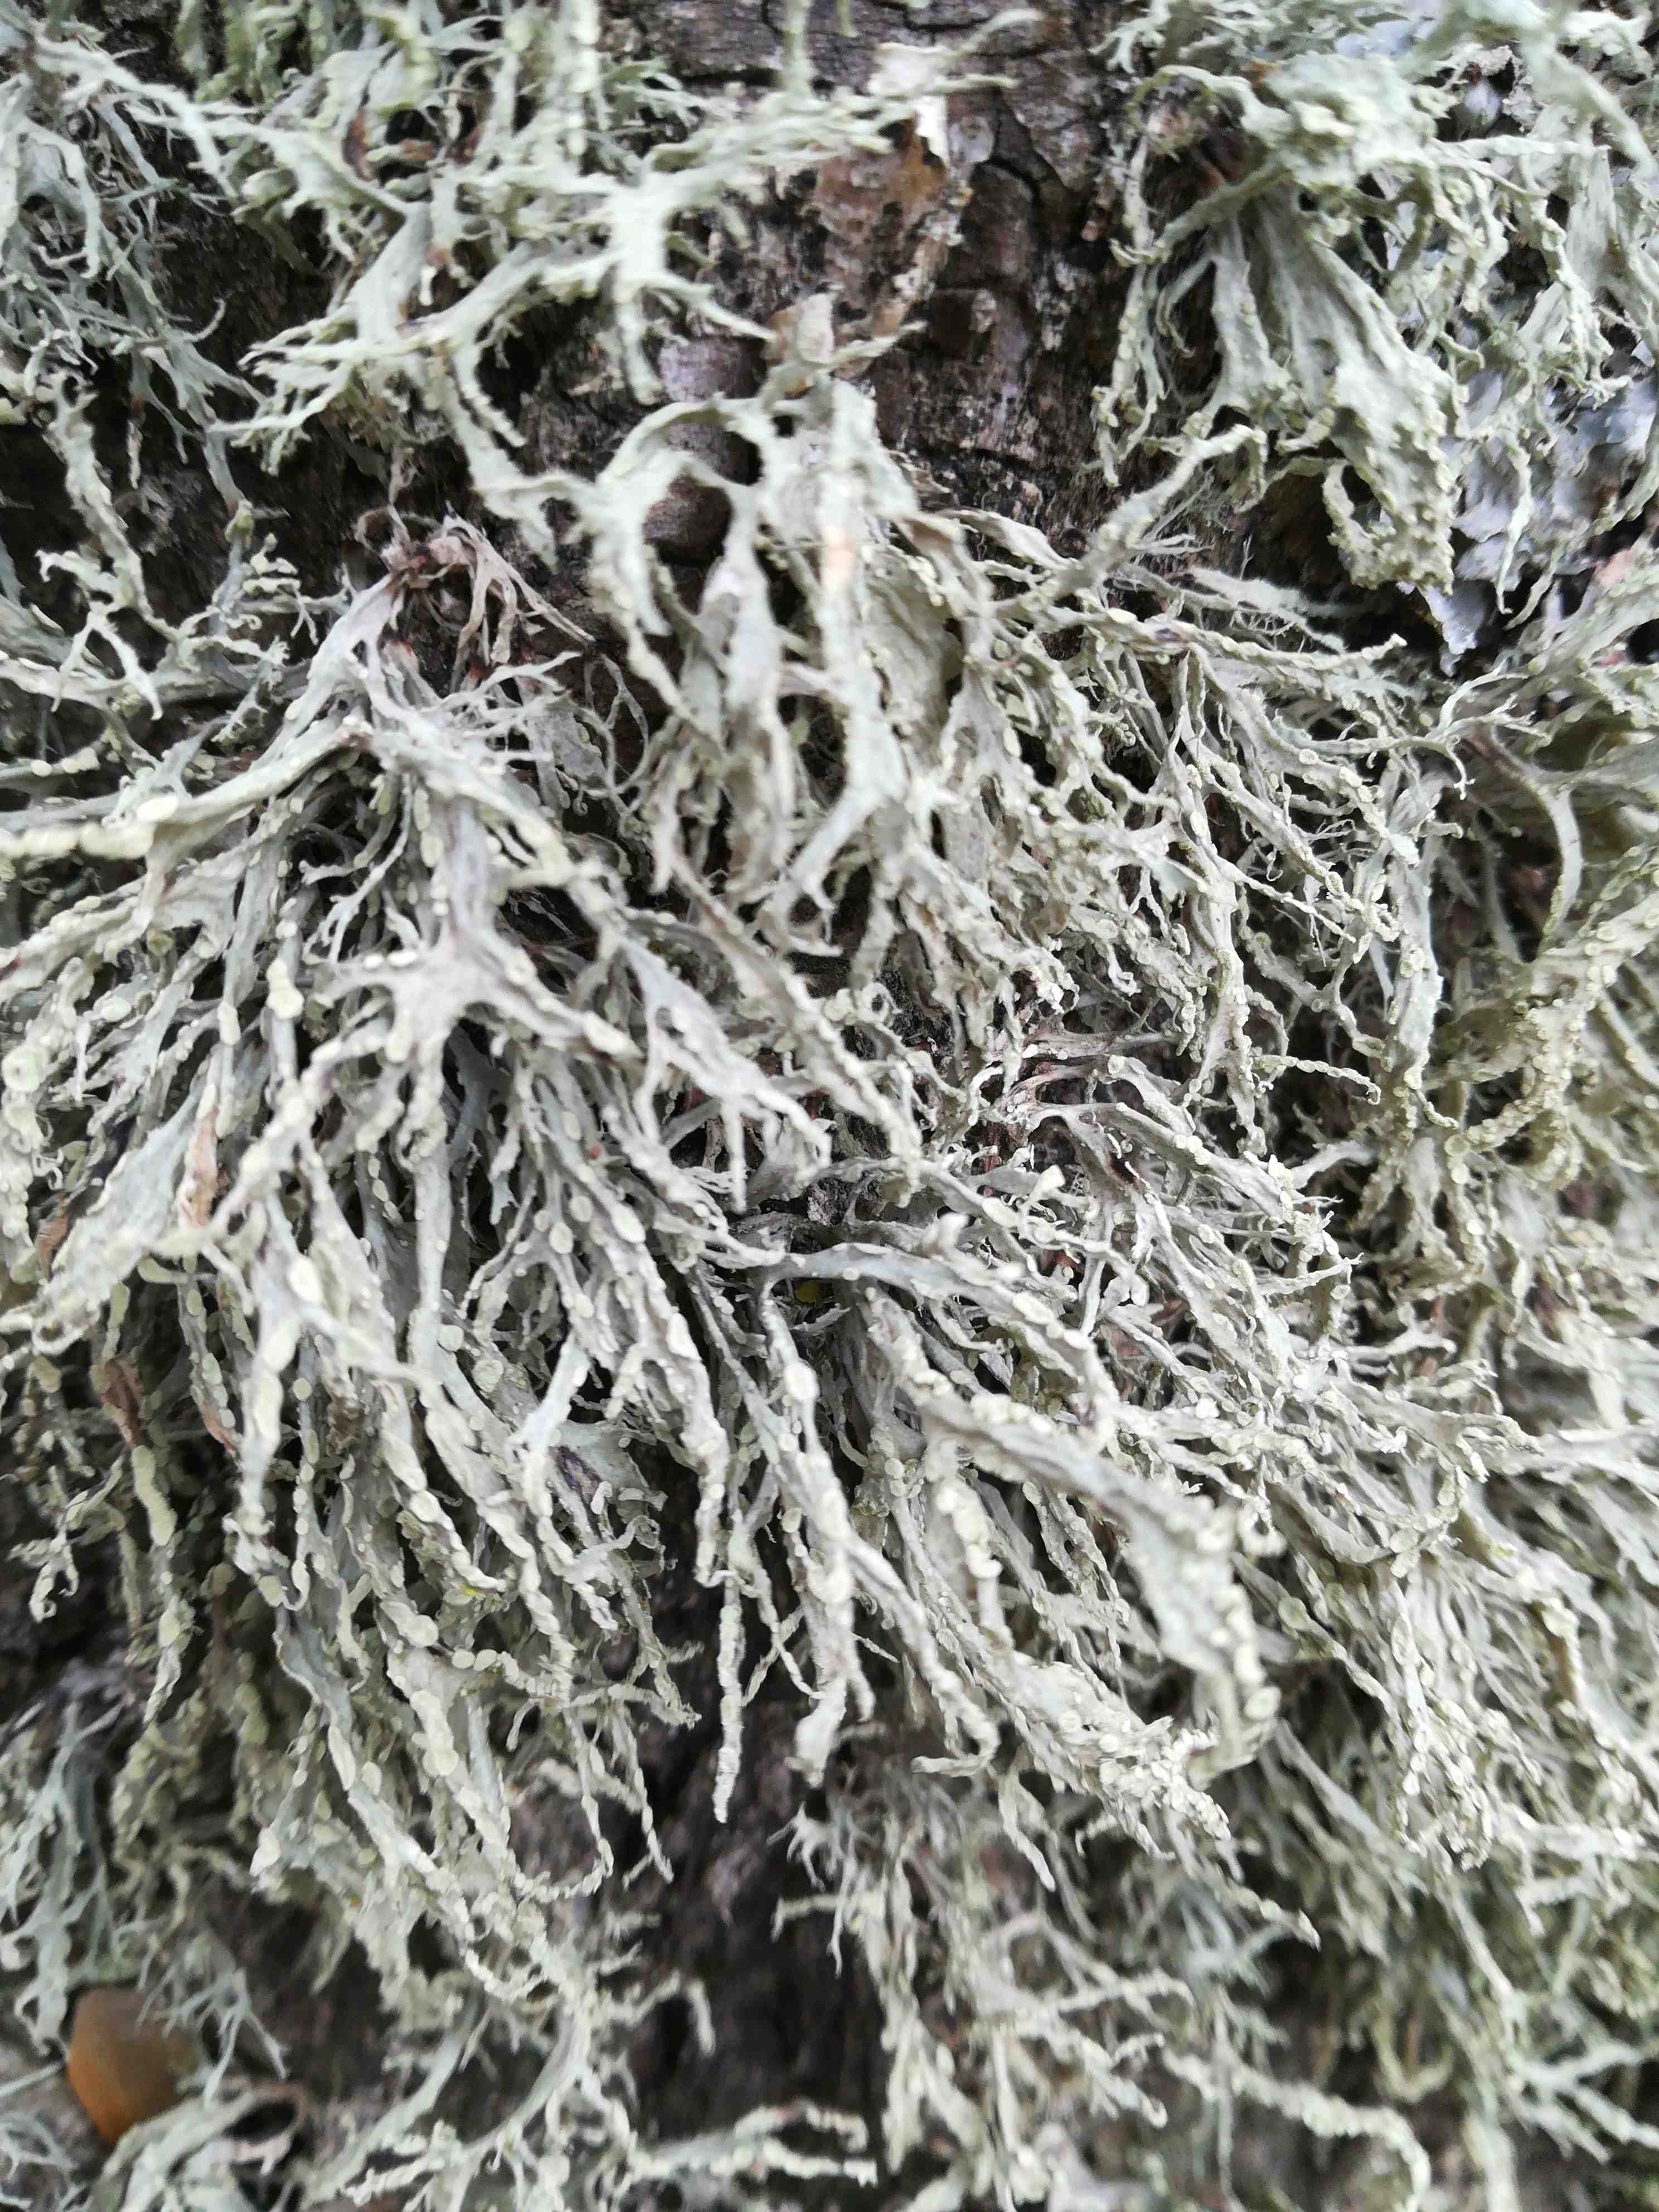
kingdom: Fungi
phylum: Ascomycota
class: Lecanoromycetes
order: Lecanorales
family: Ramalinaceae
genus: Ramalina
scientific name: Ramalina farinacea
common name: melet grenlav
